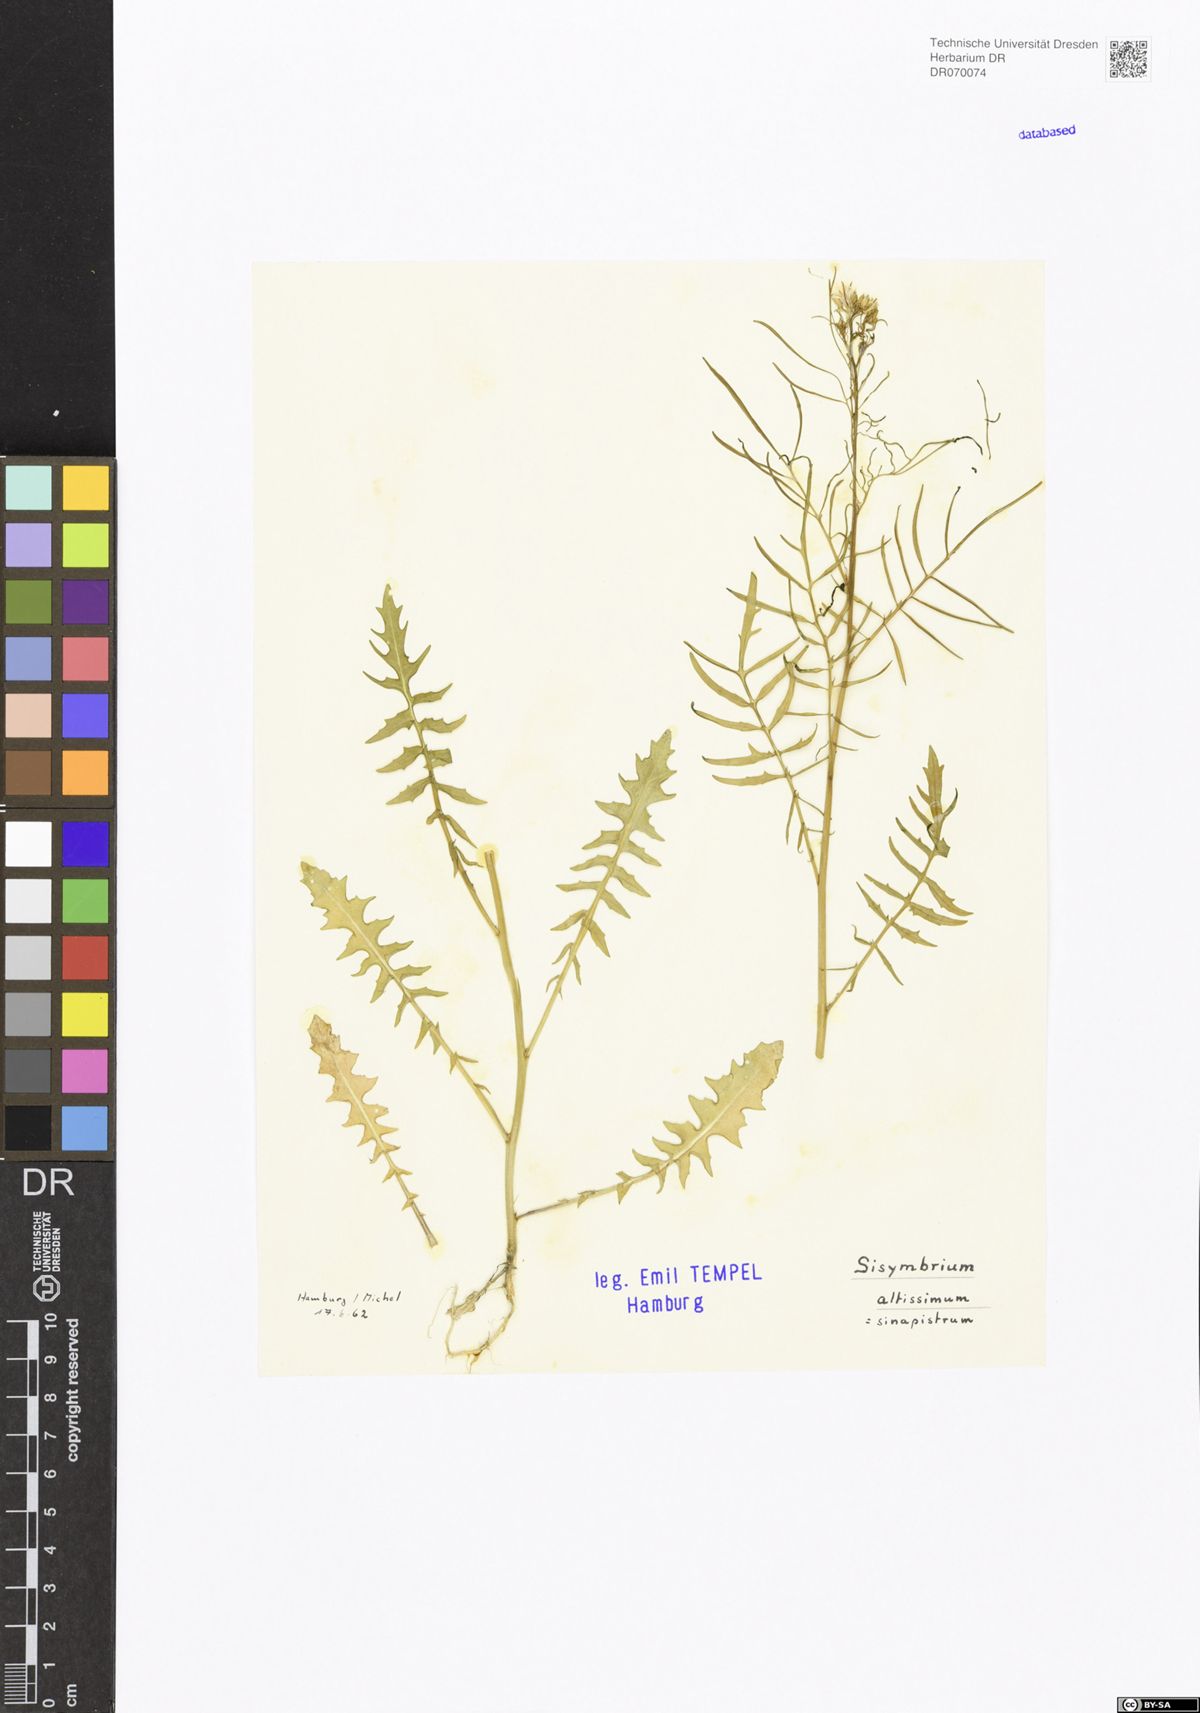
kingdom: Plantae
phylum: Tracheophyta
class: Magnoliopsida
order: Brassicales
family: Brassicaceae
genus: Sisymbrium
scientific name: Sisymbrium altissimum
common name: Tall rocket
